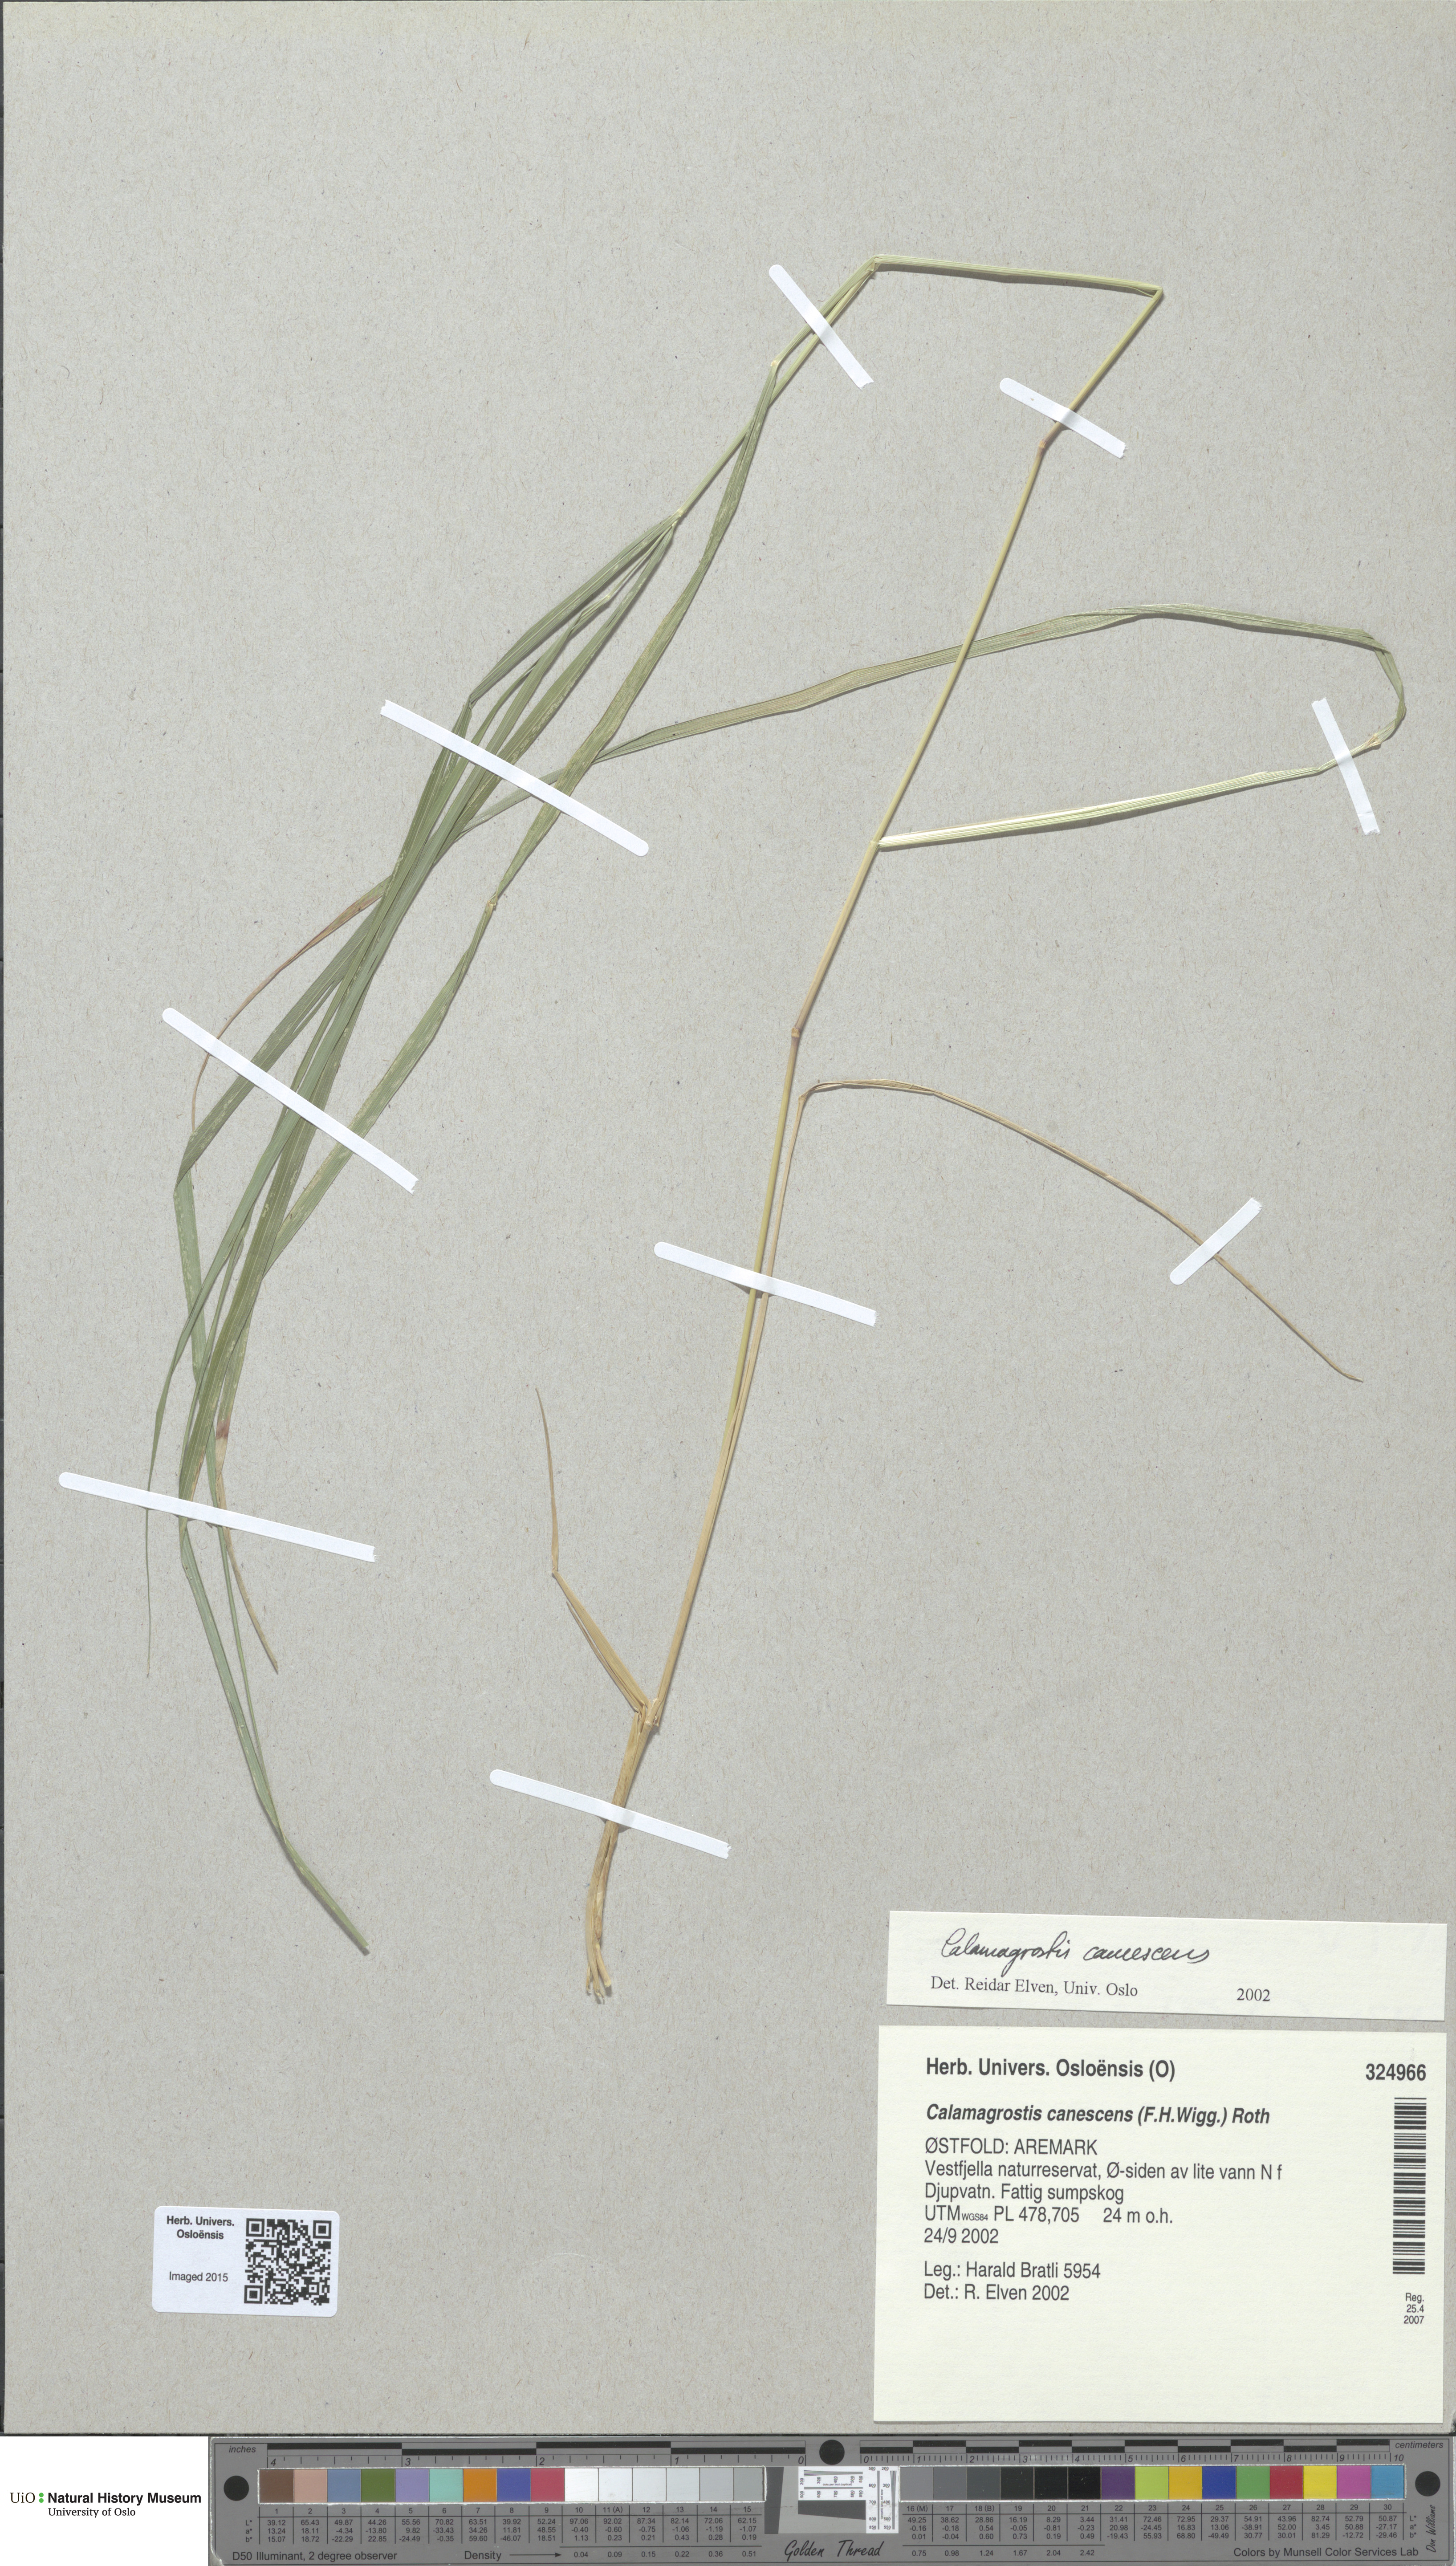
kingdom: Plantae
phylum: Tracheophyta
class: Liliopsida
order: Poales
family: Poaceae
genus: Calamagrostis
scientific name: Calamagrostis canescens
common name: Purple small-reed
